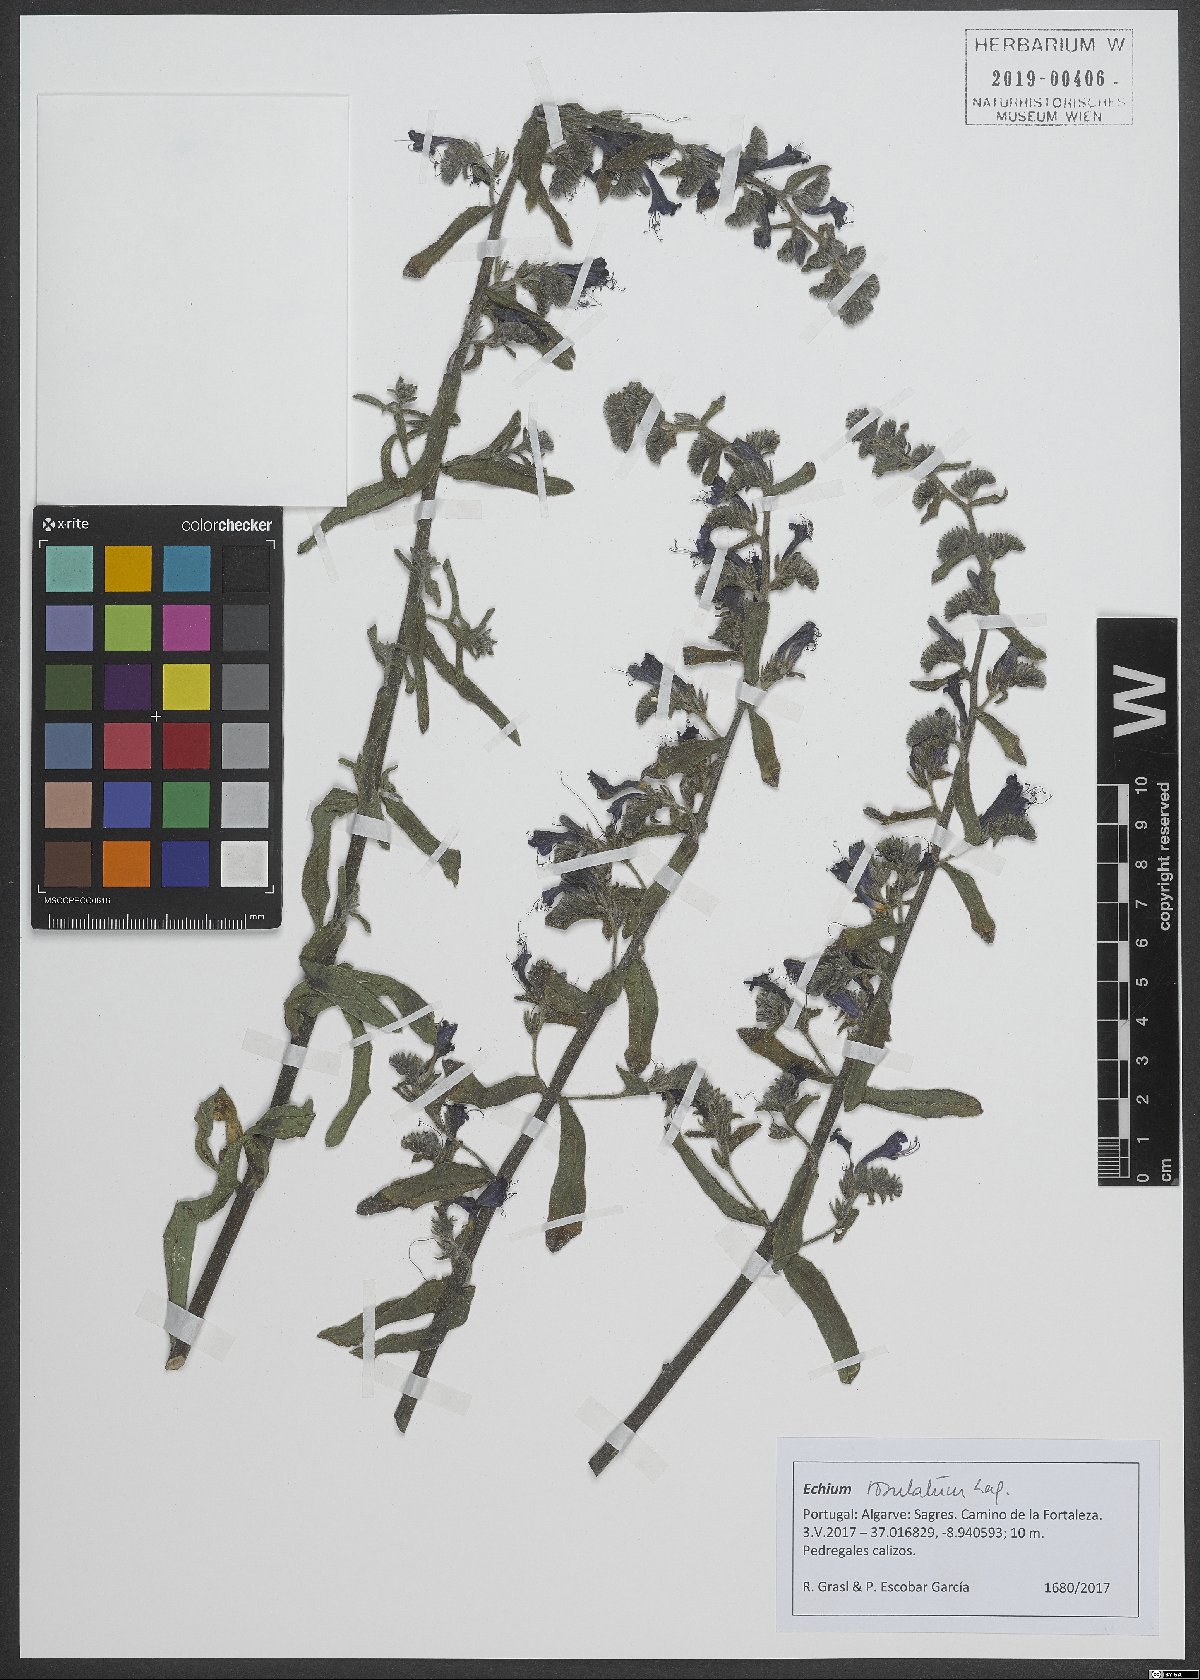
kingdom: Plantae
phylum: Tracheophyta
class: Magnoliopsida
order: Boraginales
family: Boraginaceae
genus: Echium
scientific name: Echium rosulatum
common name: Lax viper's-bugloss
